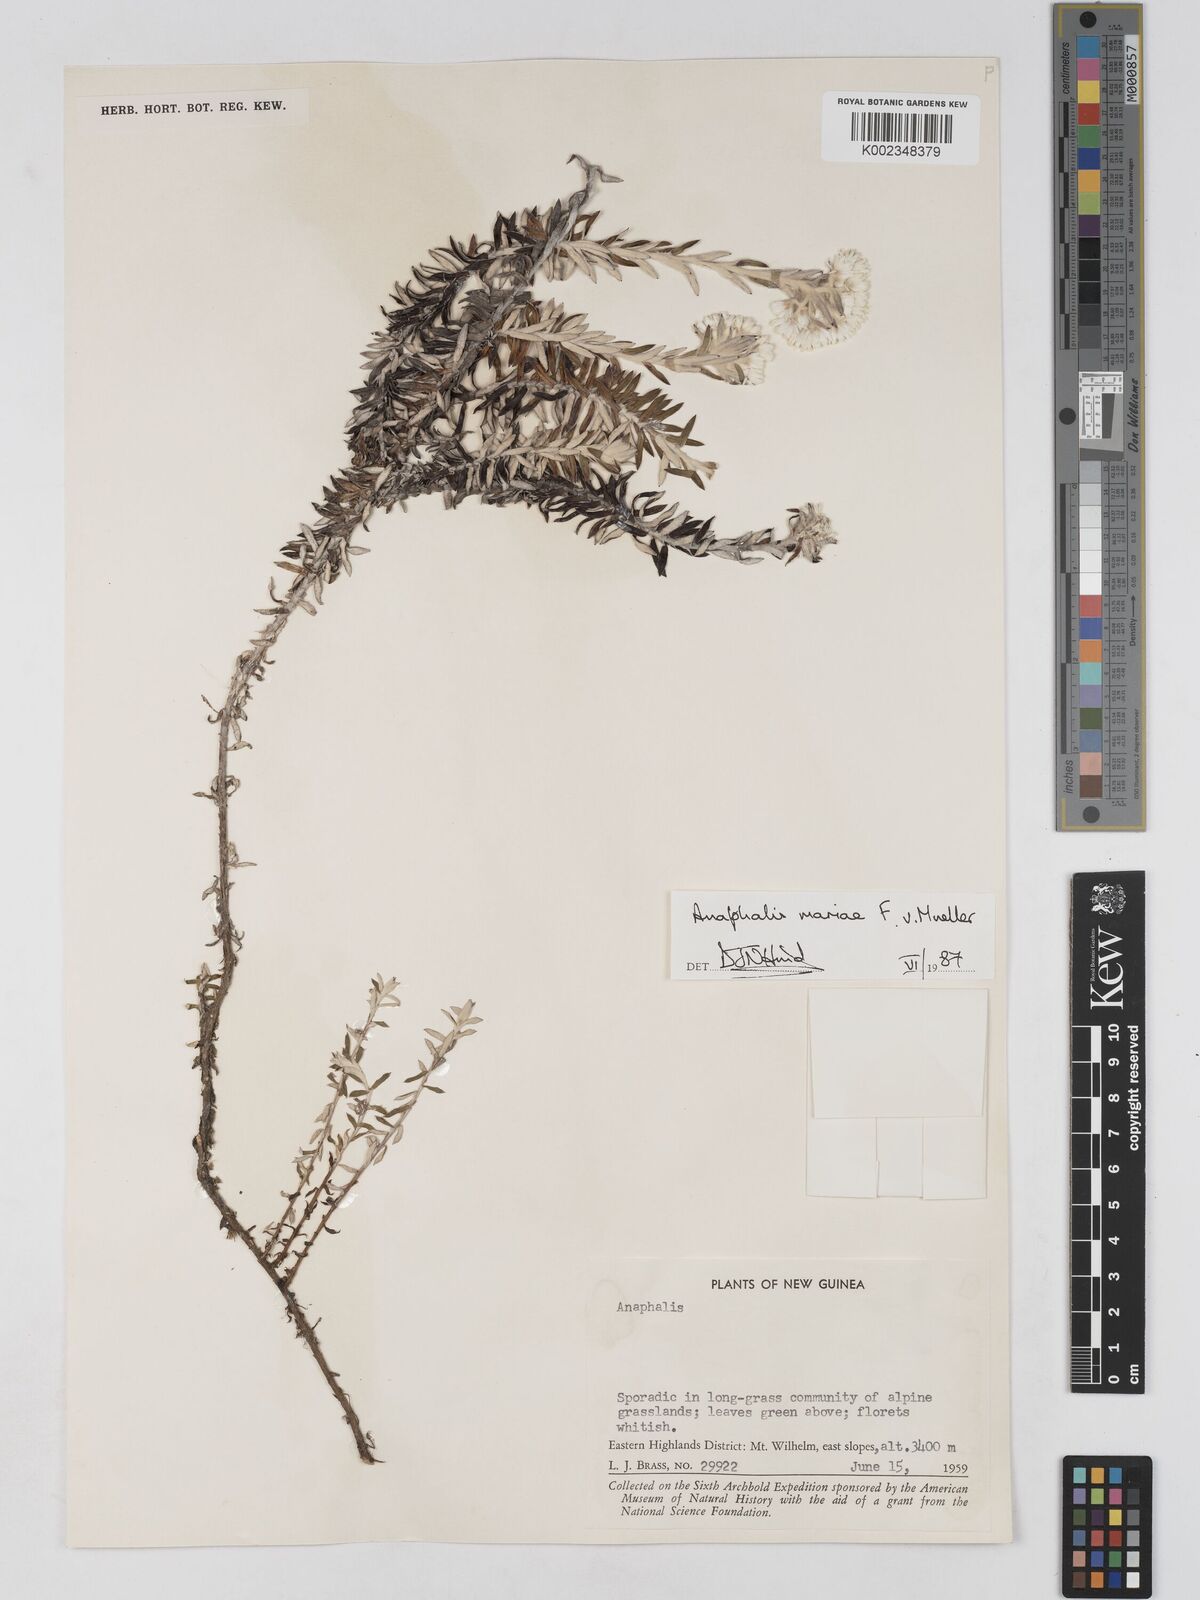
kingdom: Plantae
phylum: Tracheophyta
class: Magnoliopsida
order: Asterales
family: Asteraceae
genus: Anaphalioides
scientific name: Anaphalioides mariae
